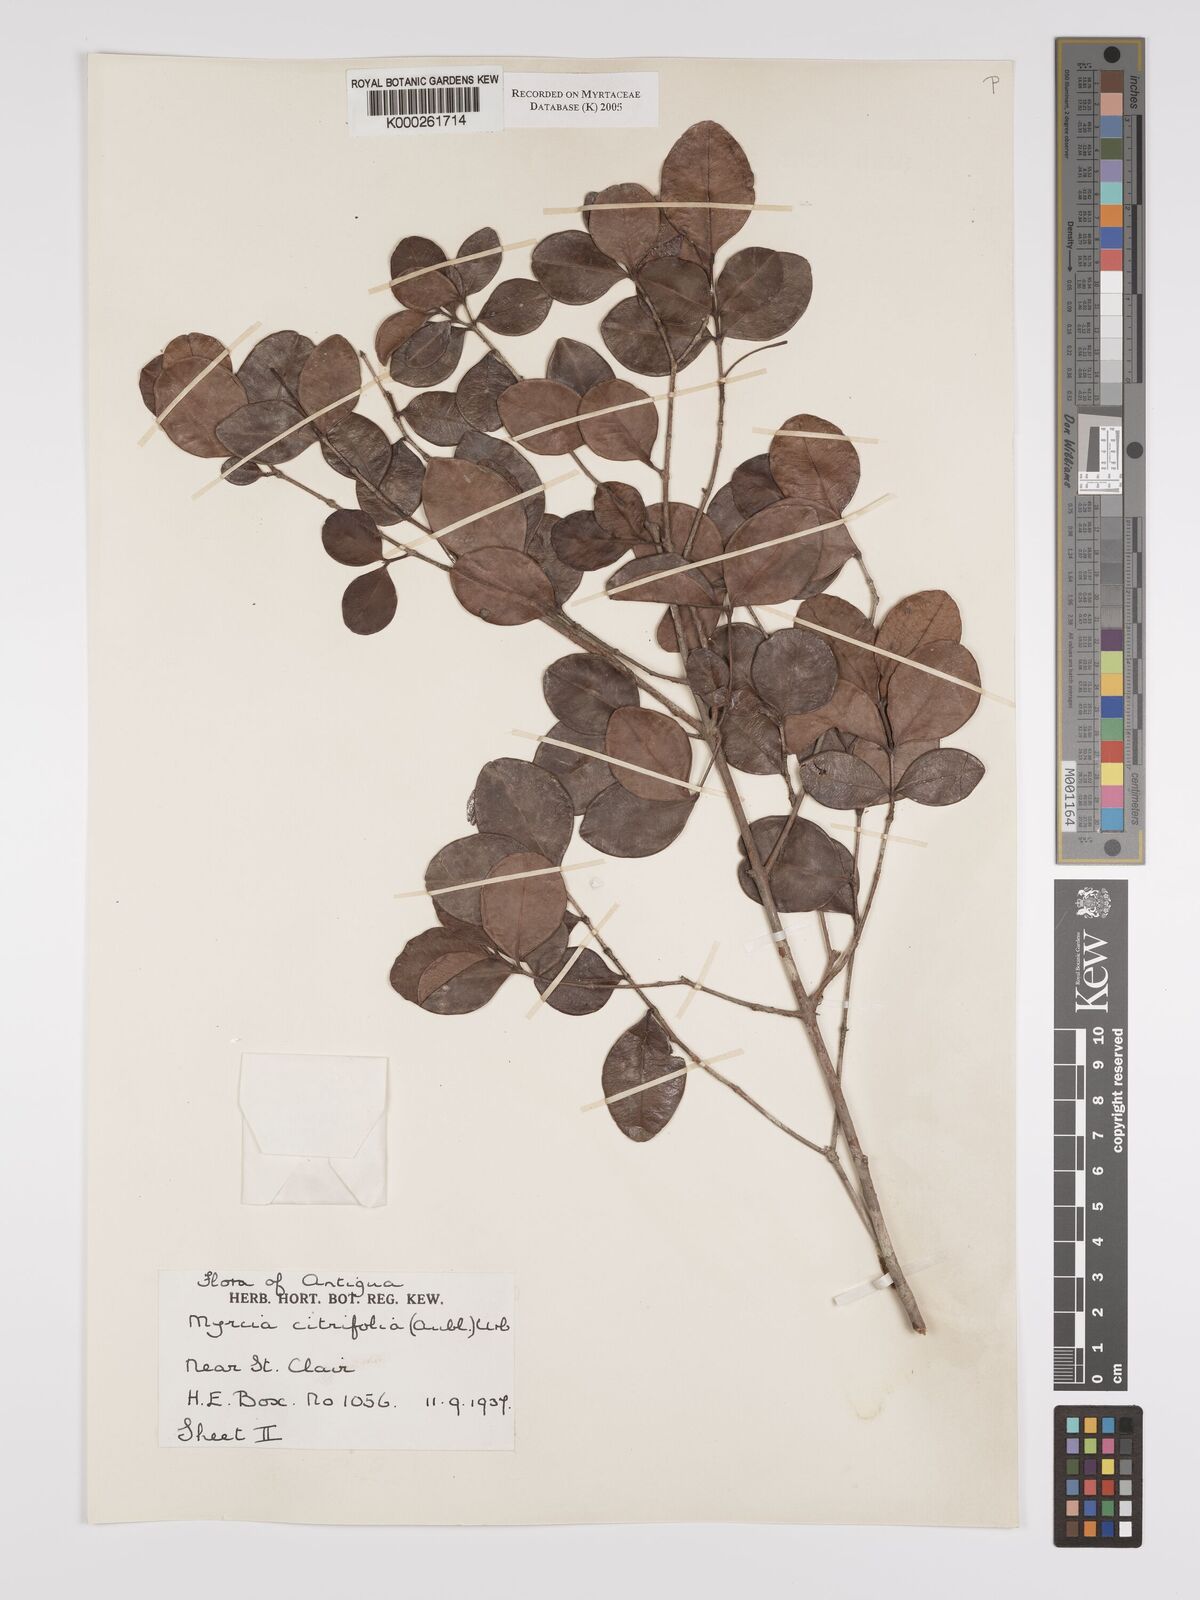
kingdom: Plantae
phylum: Tracheophyta
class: Magnoliopsida
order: Myrtales
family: Myrtaceae
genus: Myrcia
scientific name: Myrcia guianensis
